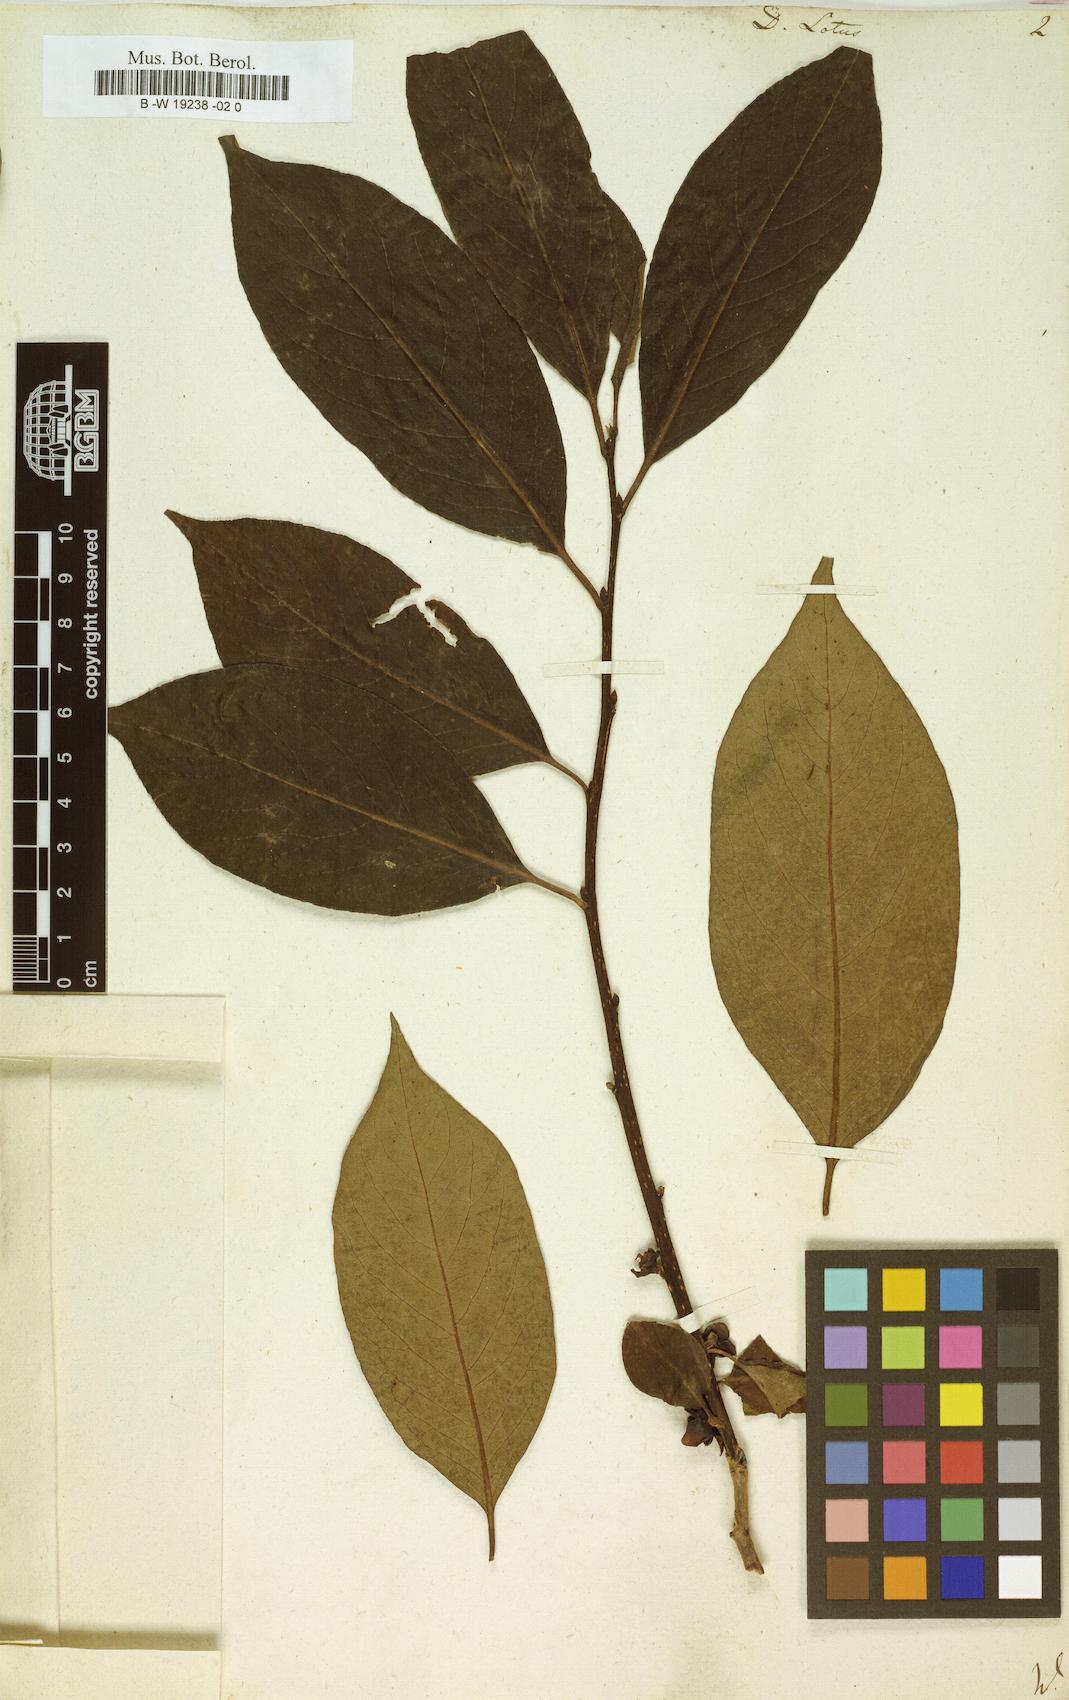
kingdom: Plantae
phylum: Tracheophyta
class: Magnoliopsida
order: Ericales
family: Ebenaceae
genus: Diospyros
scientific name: Diospyros lotus
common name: Date-plum
